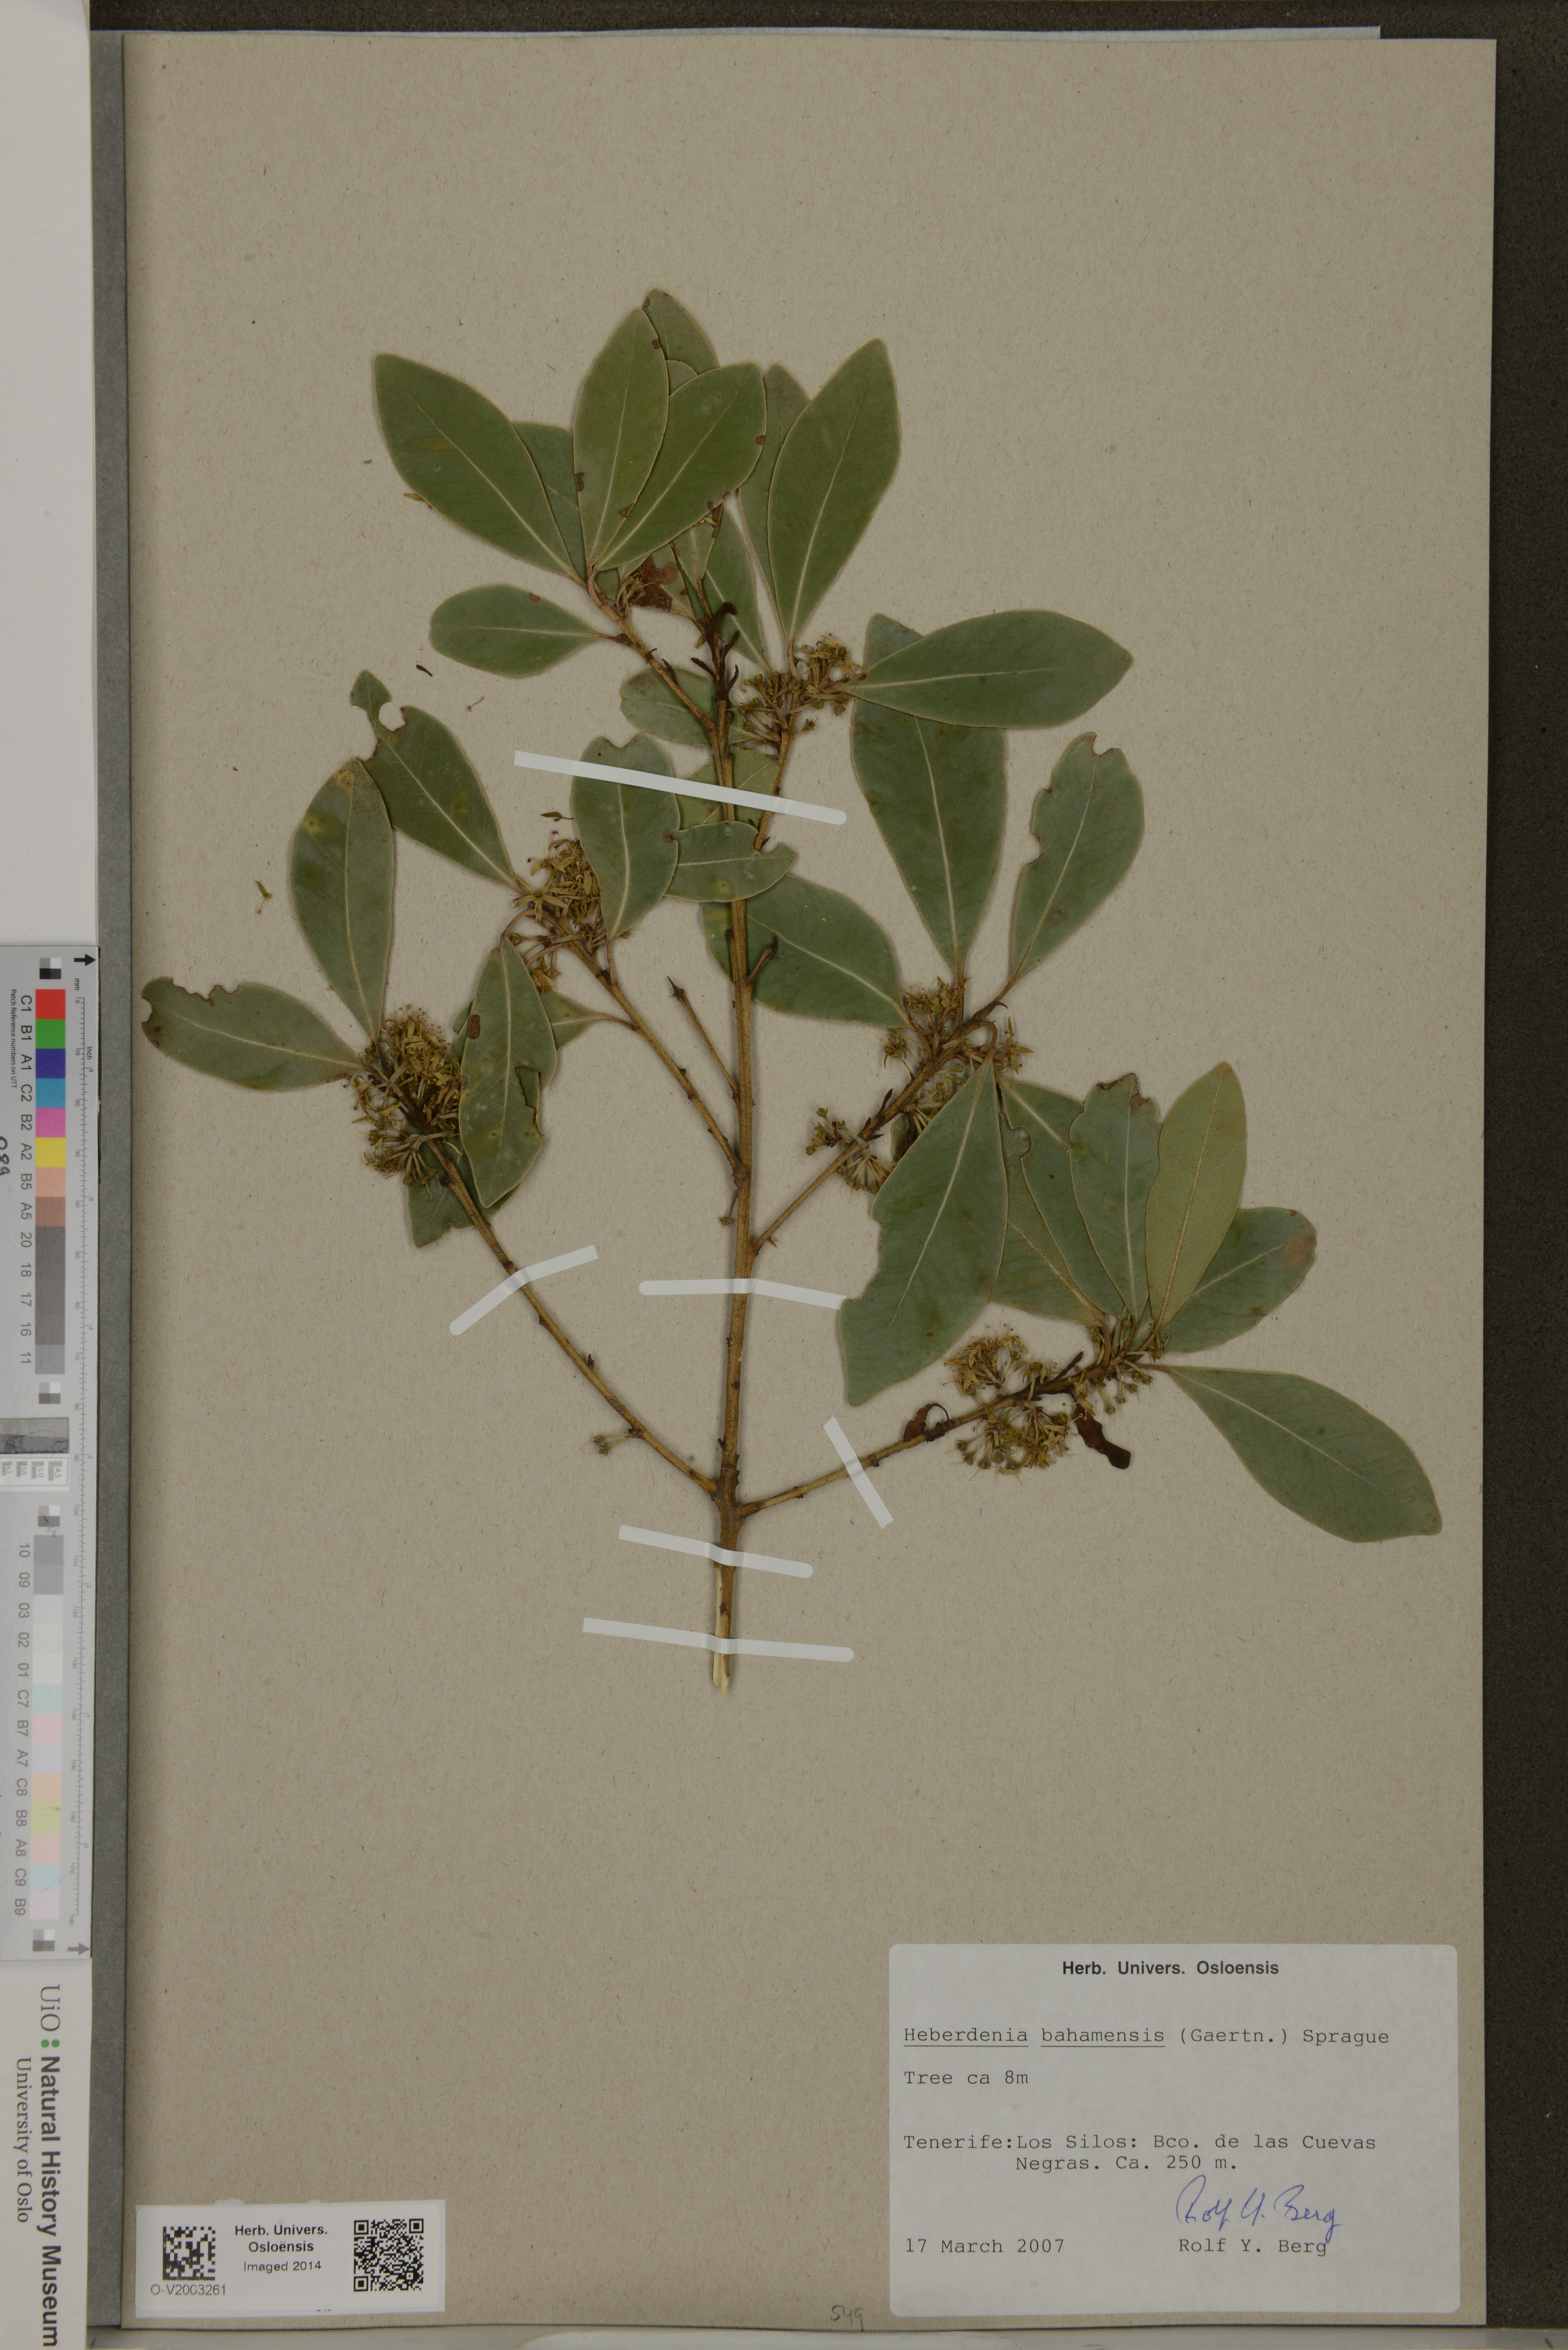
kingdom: Plantae
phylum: Tracheophyta
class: Magnoliopsida
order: Ericales
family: Primulaceae
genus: Heberdenia
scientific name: Heberdenia excelsa
